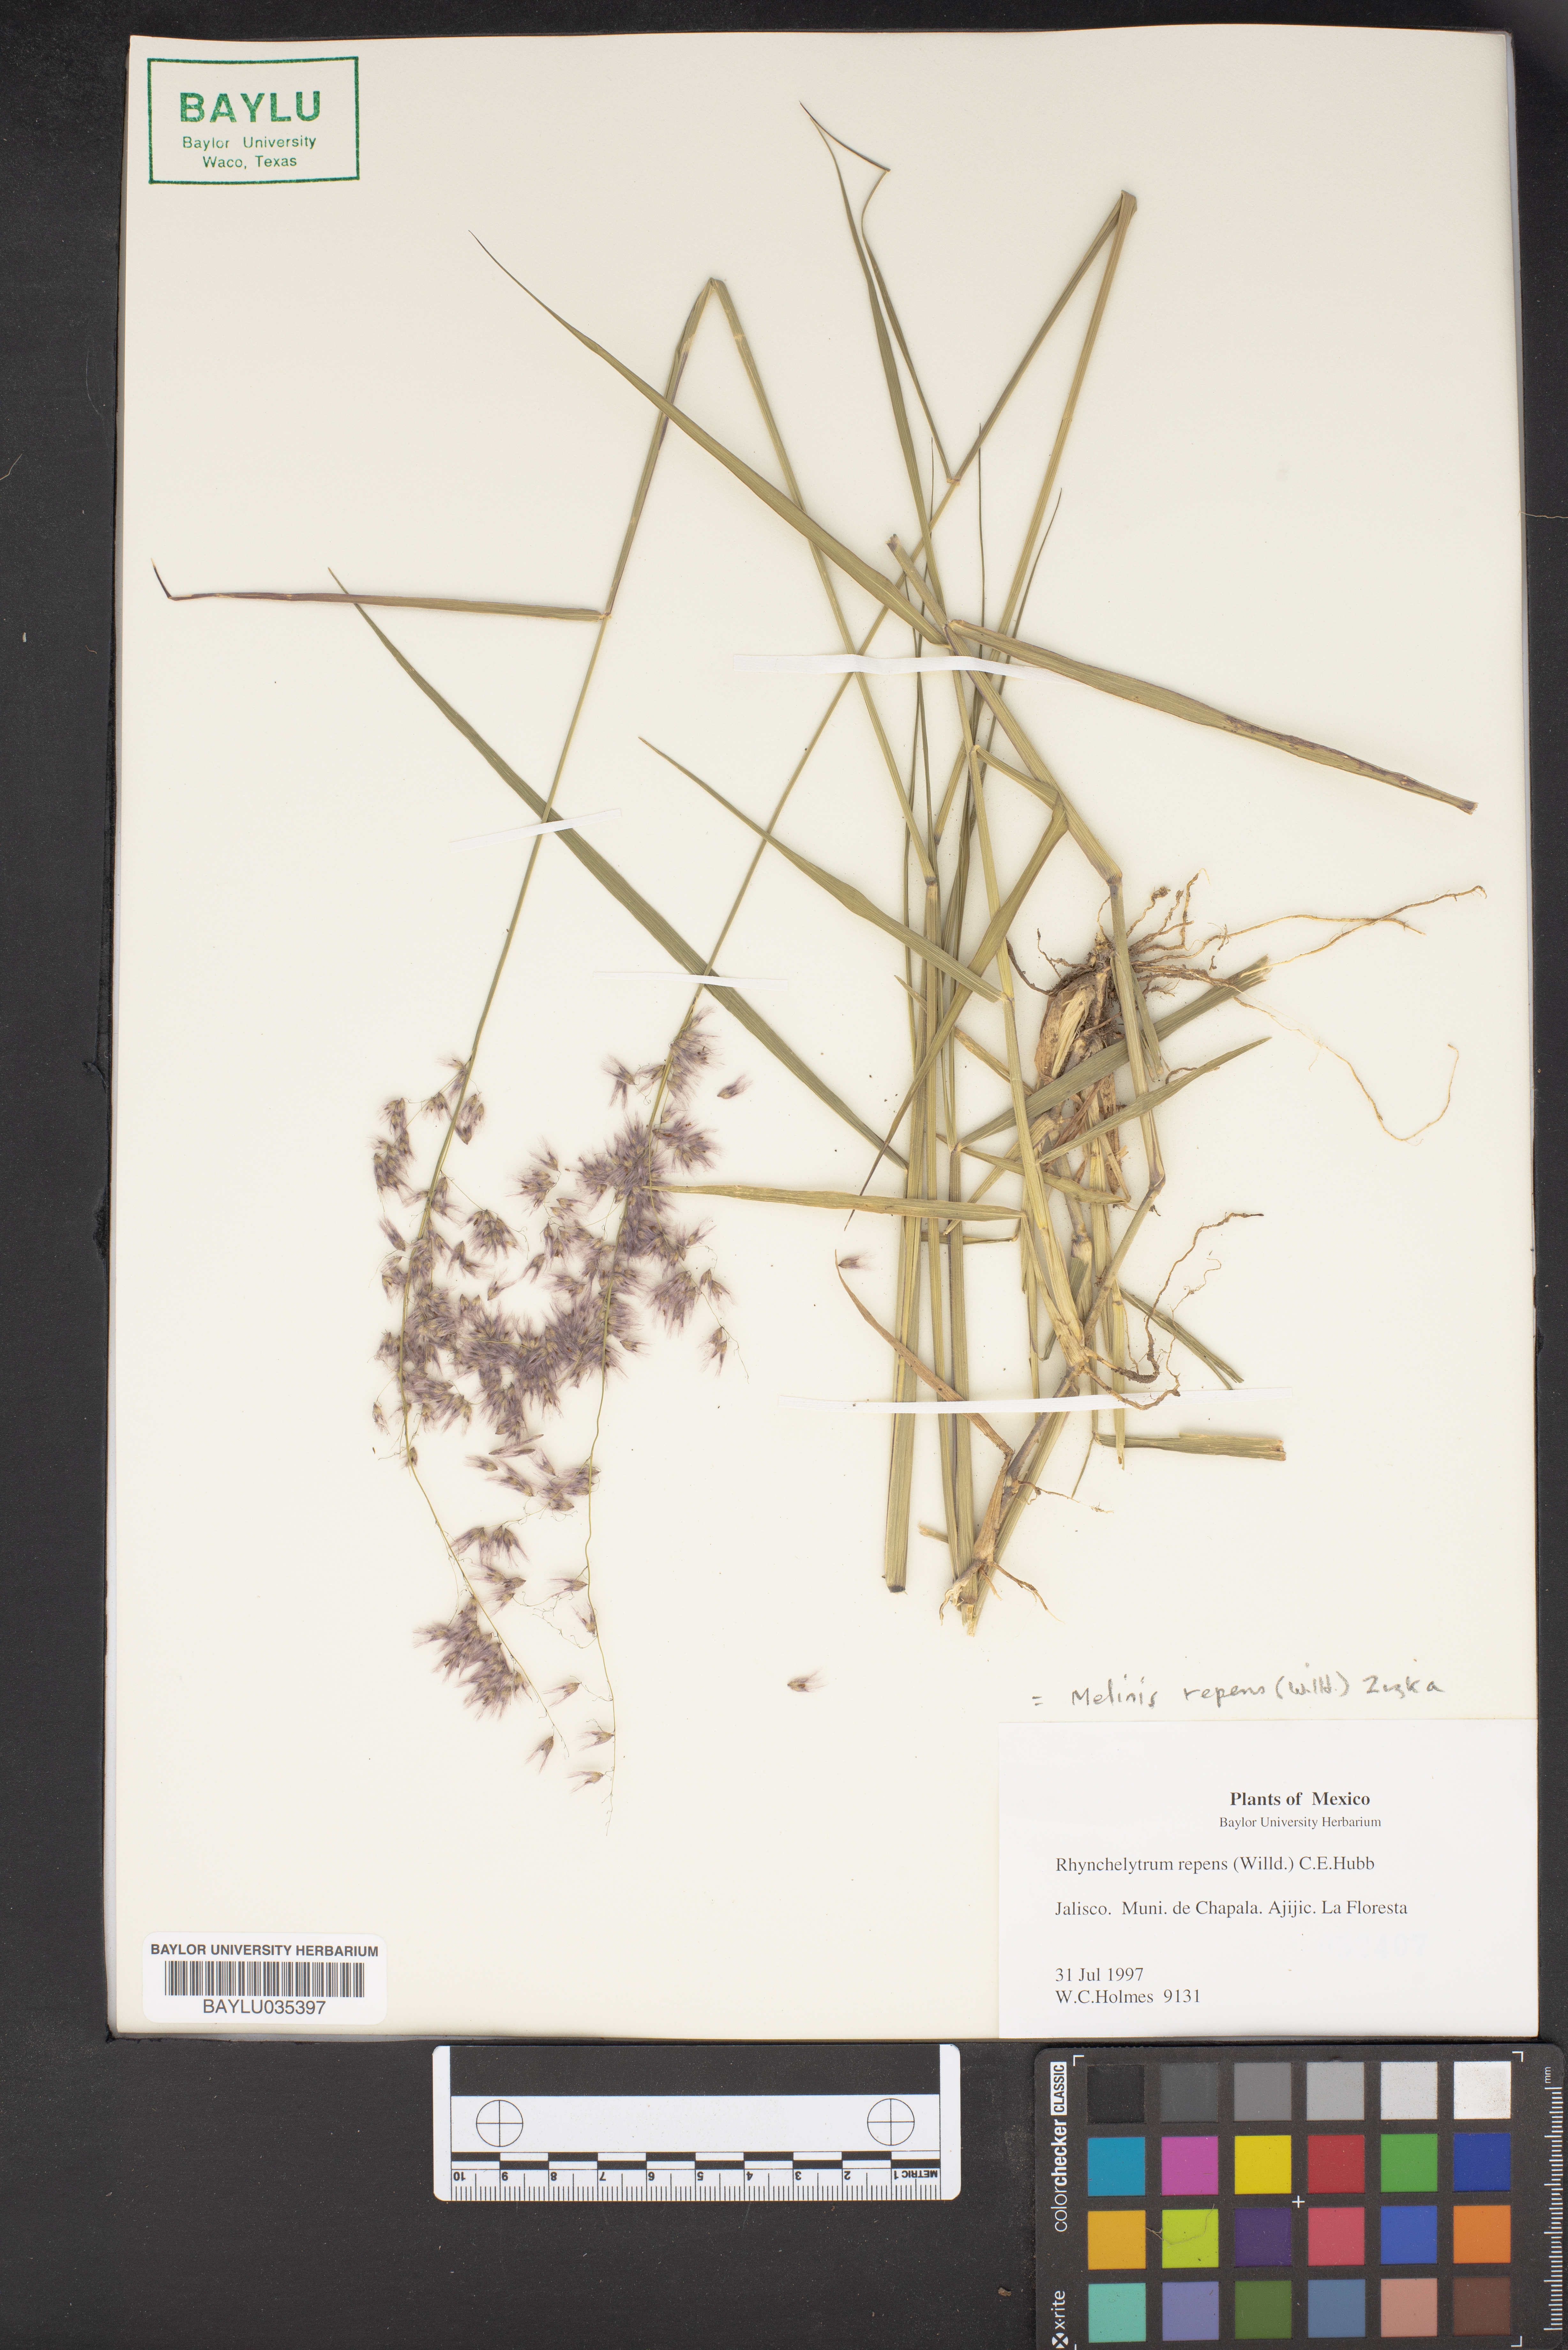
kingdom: Plantae
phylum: Tracheophyta
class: Liliopsida
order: Poales
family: Poaceae
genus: Melinis
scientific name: Melinis repens
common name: Rose natal grass
